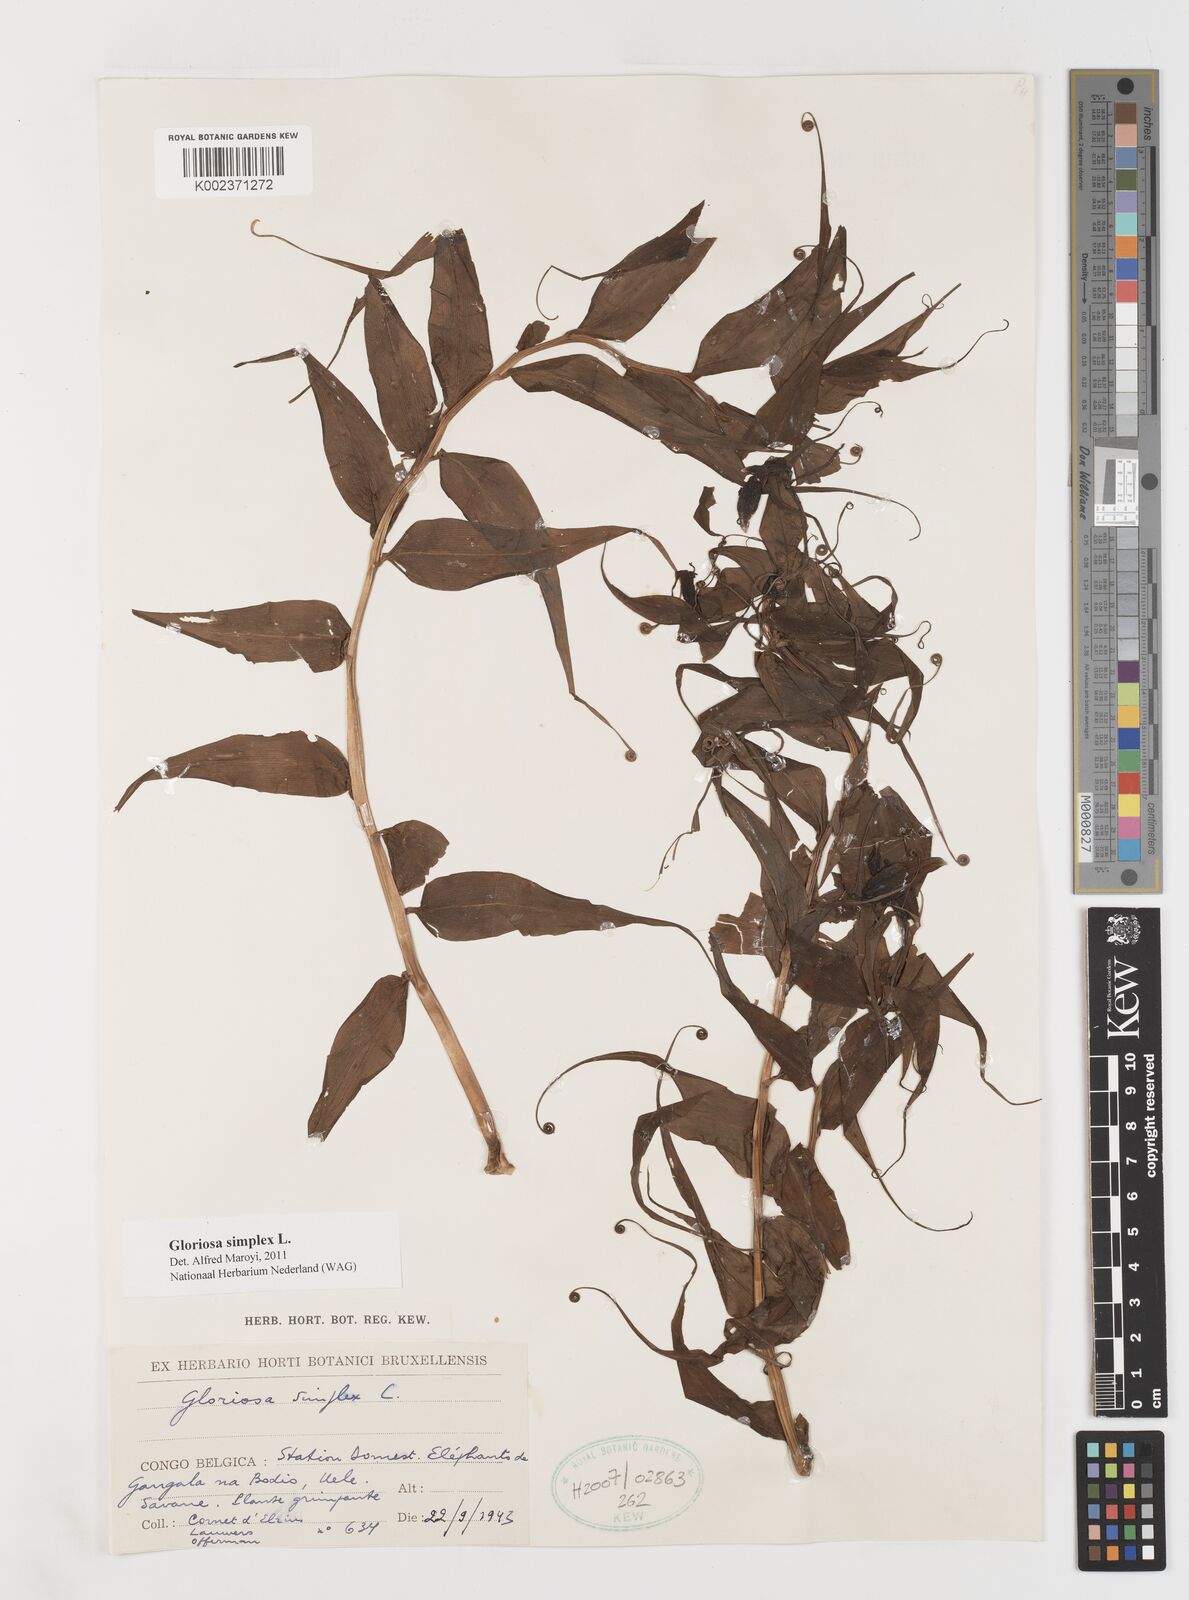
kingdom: Plantae
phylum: Tracheophyta
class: Liliopsida
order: Liliales
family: Colchicaceae
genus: Gloriosa
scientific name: Gloriosa simplex
